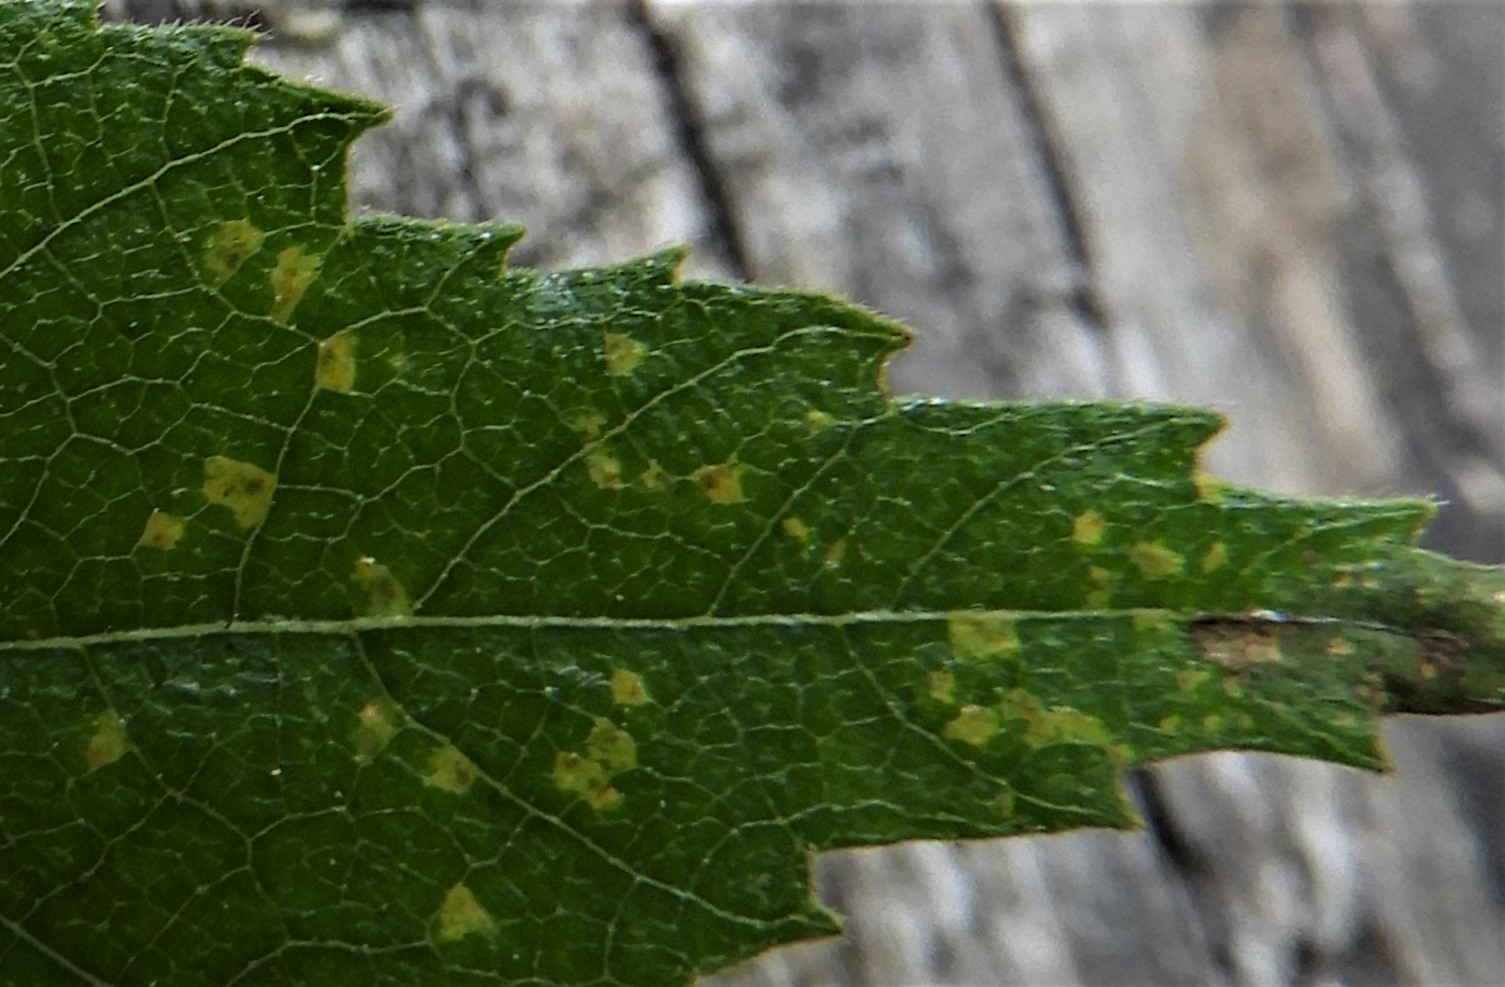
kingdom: Fungi
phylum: Basidiomycota
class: Pucciniomycetes
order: Pucciniales
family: Pucciniastraceae
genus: Melampsoridium
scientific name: Melampsoridium betulinum
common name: Birch rust
